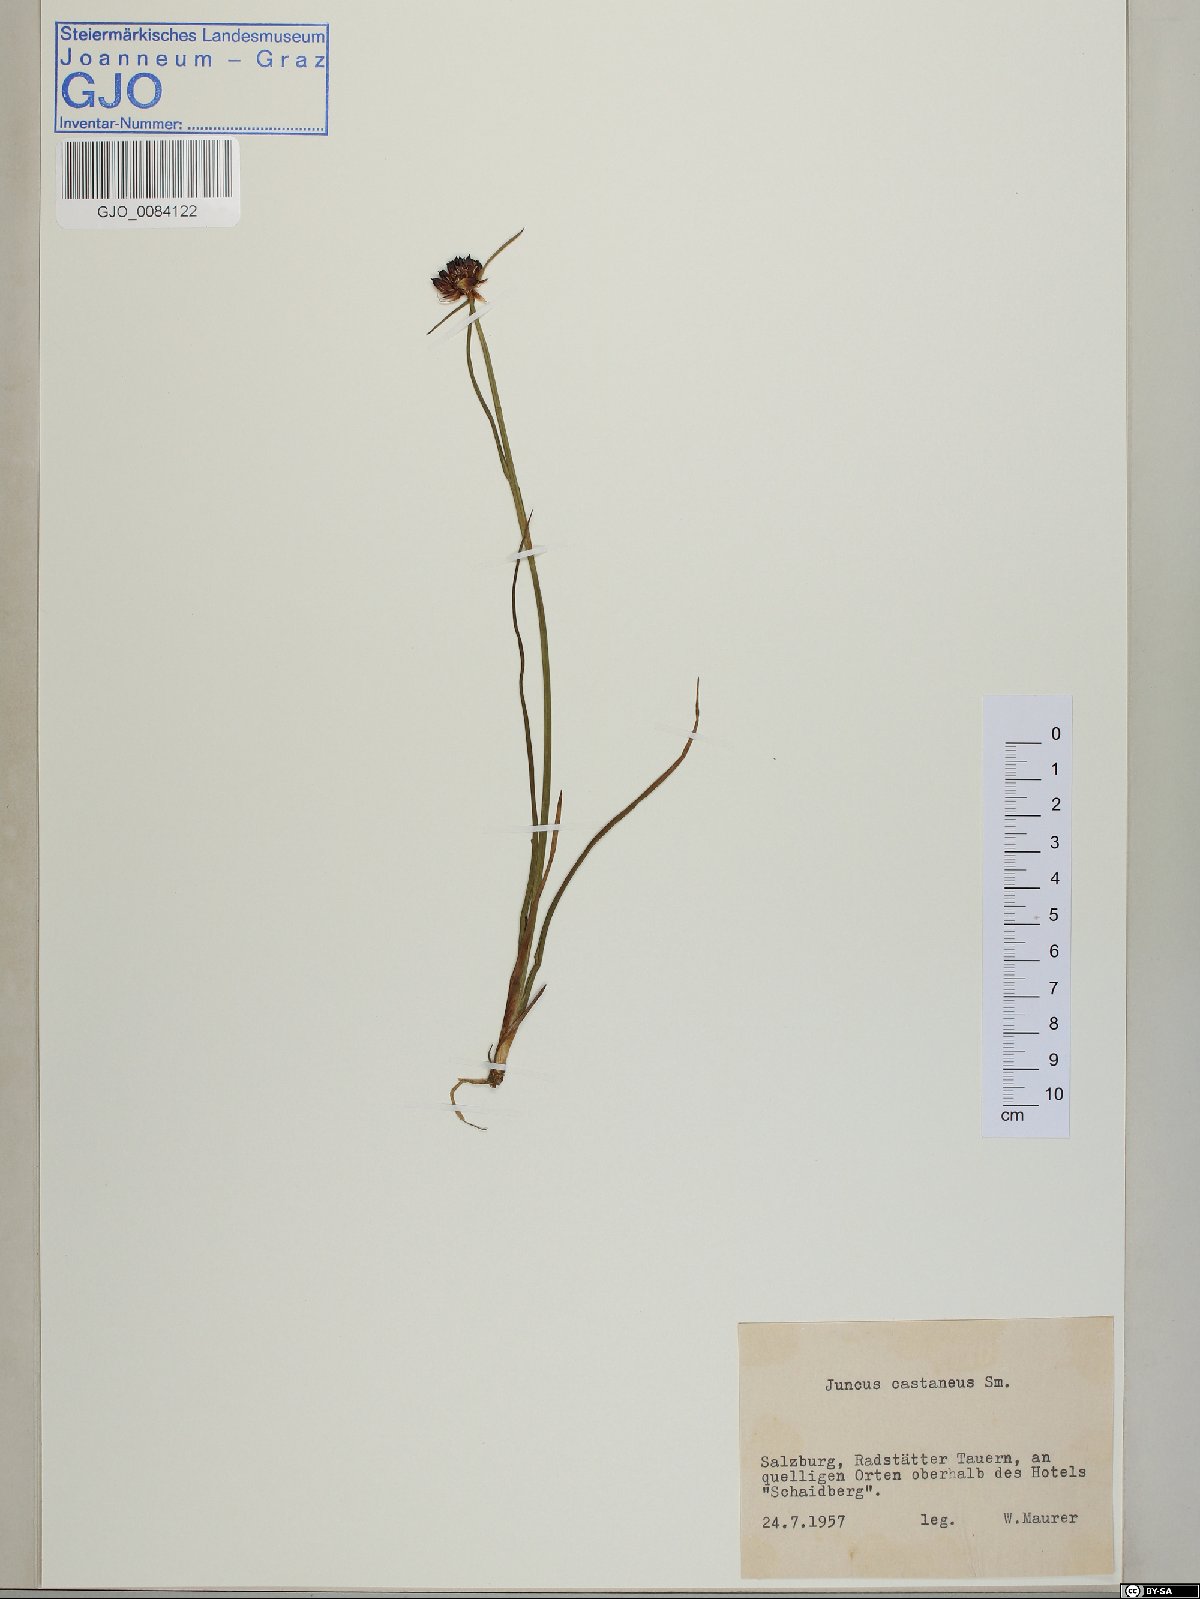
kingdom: Plantae
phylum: Tracheophyta
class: Liliopsida
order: Poales
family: Juncaceae
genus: Juncus
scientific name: Juncus castaneus
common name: Chestnut rush
